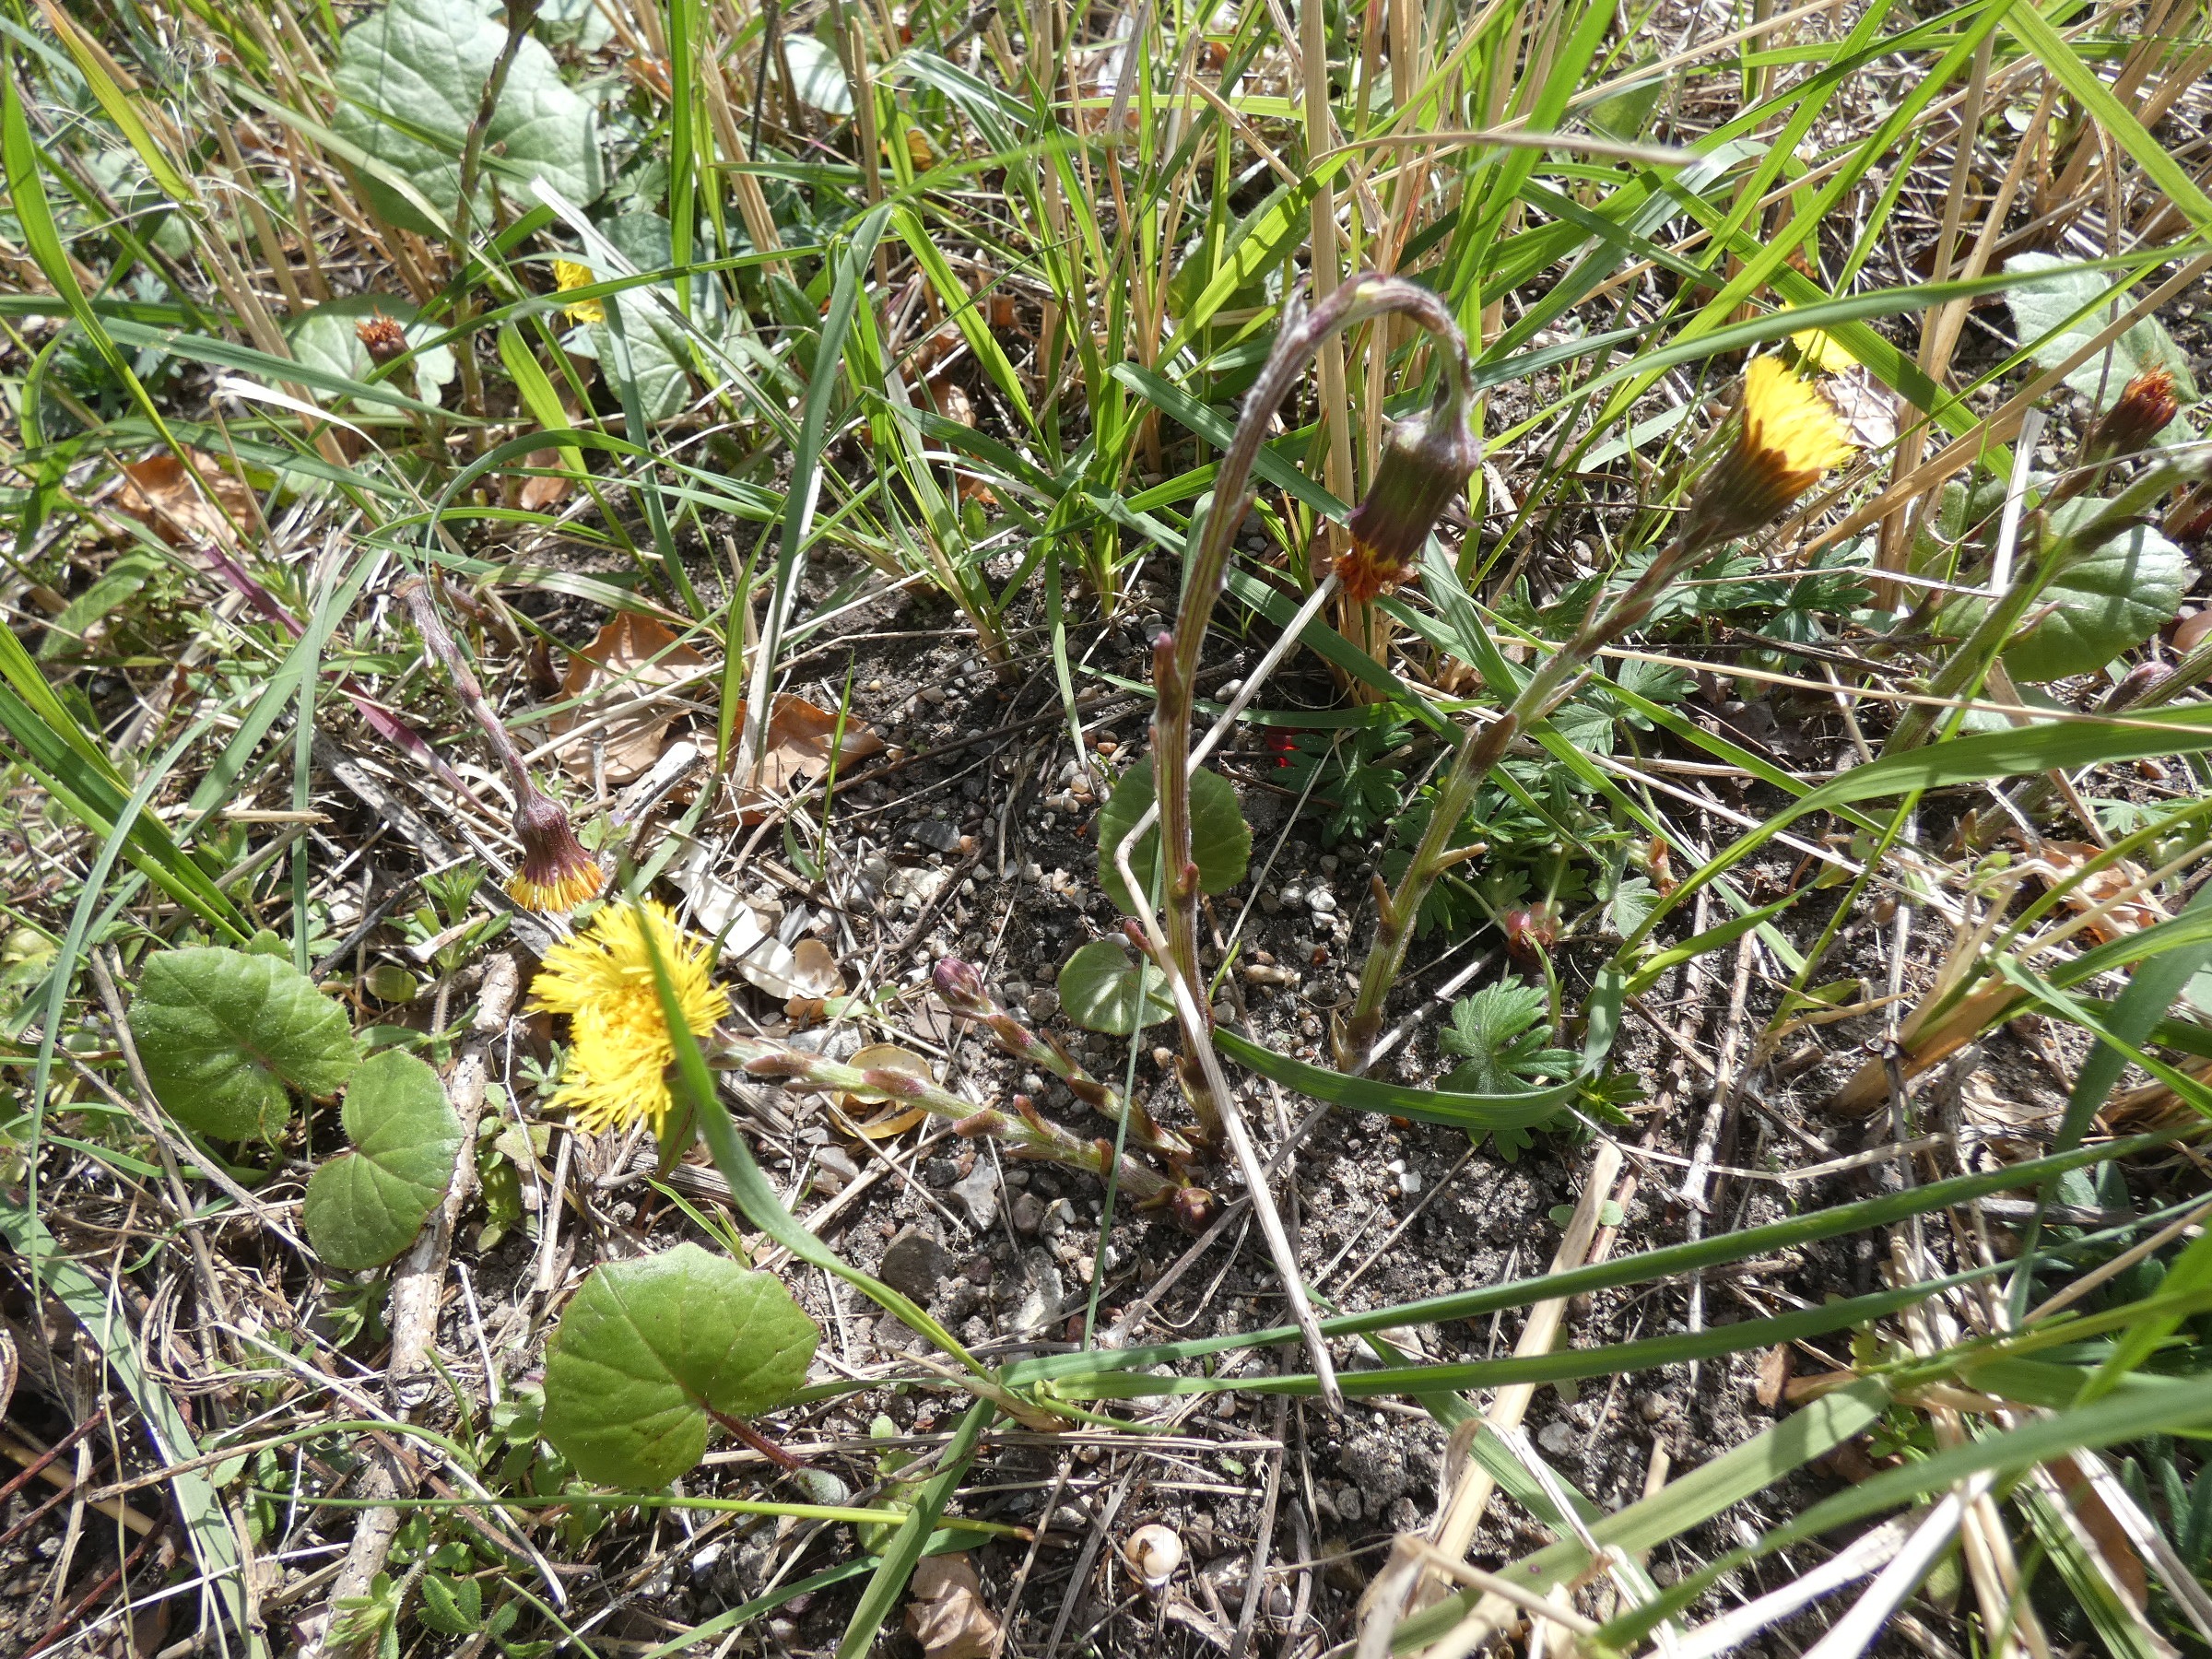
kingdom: Plantae
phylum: Tracheophyta
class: Magnoliopsida
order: Asterales
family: Asteraceae
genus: Tussilago
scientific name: Tussilago farfara
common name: Følfod
